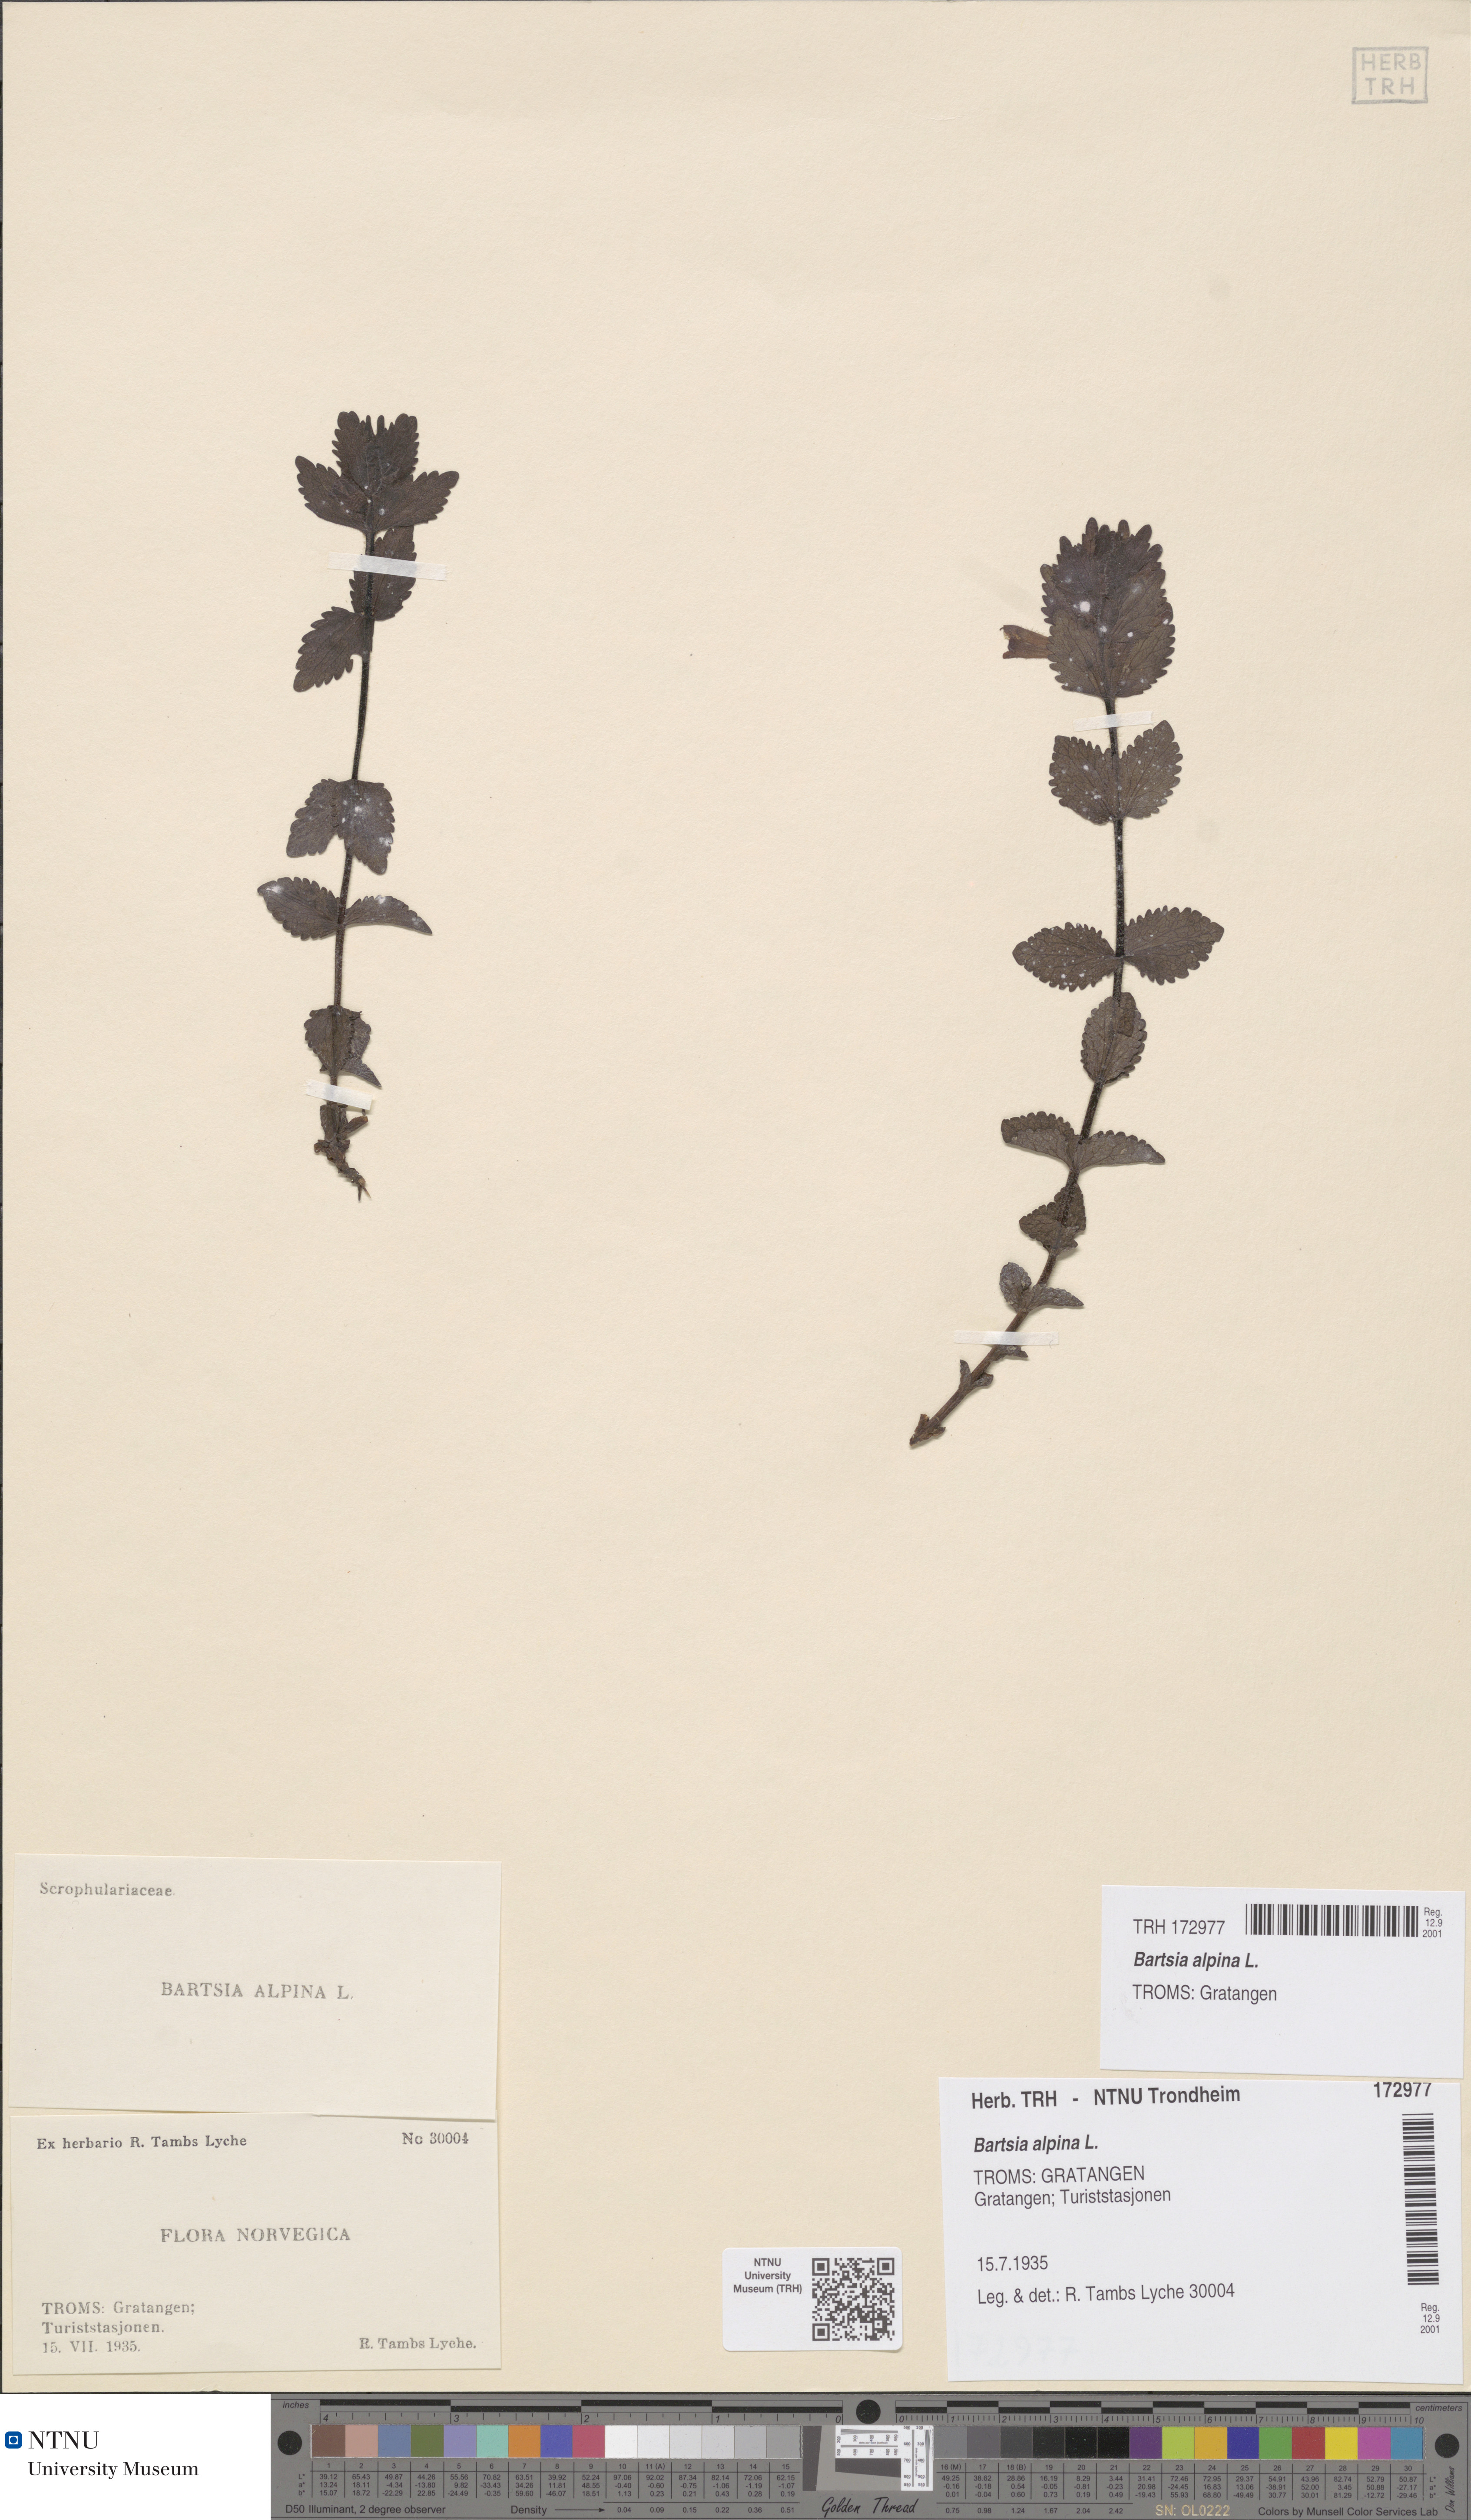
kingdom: Plantae
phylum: Tracheophyta
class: Magnoliopsida
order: Lamiales
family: Orobanchaceae
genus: Bartsia
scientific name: Bartsia alpina
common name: Alpine bartsia
